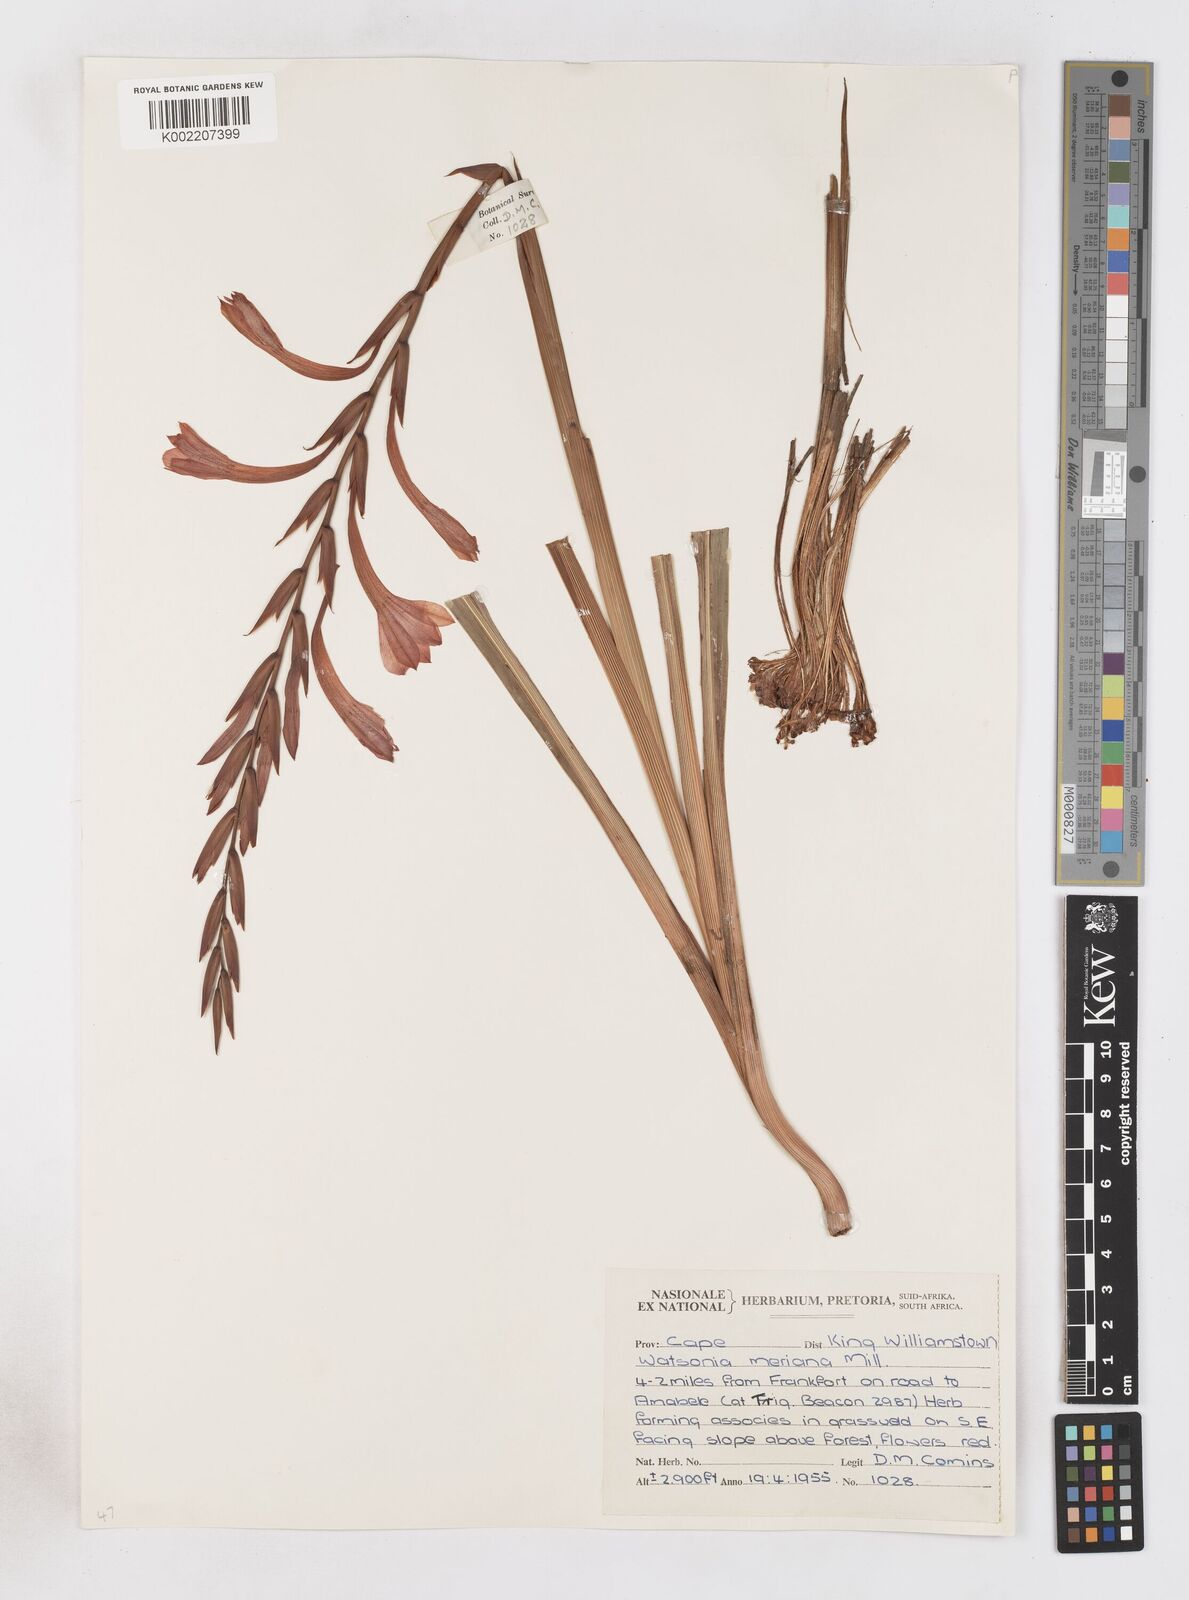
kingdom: Plantae
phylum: Tracheophyta
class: Liliopsida
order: Asparagales
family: Iridaceae
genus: Watsonia
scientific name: Watsonia pillansii
